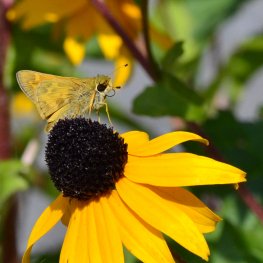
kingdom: Animalia
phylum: Arthropoda
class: Insecta
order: Lepidoptera
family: Hesperiidae
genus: Atalopedes
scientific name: Atalopedes campestris
